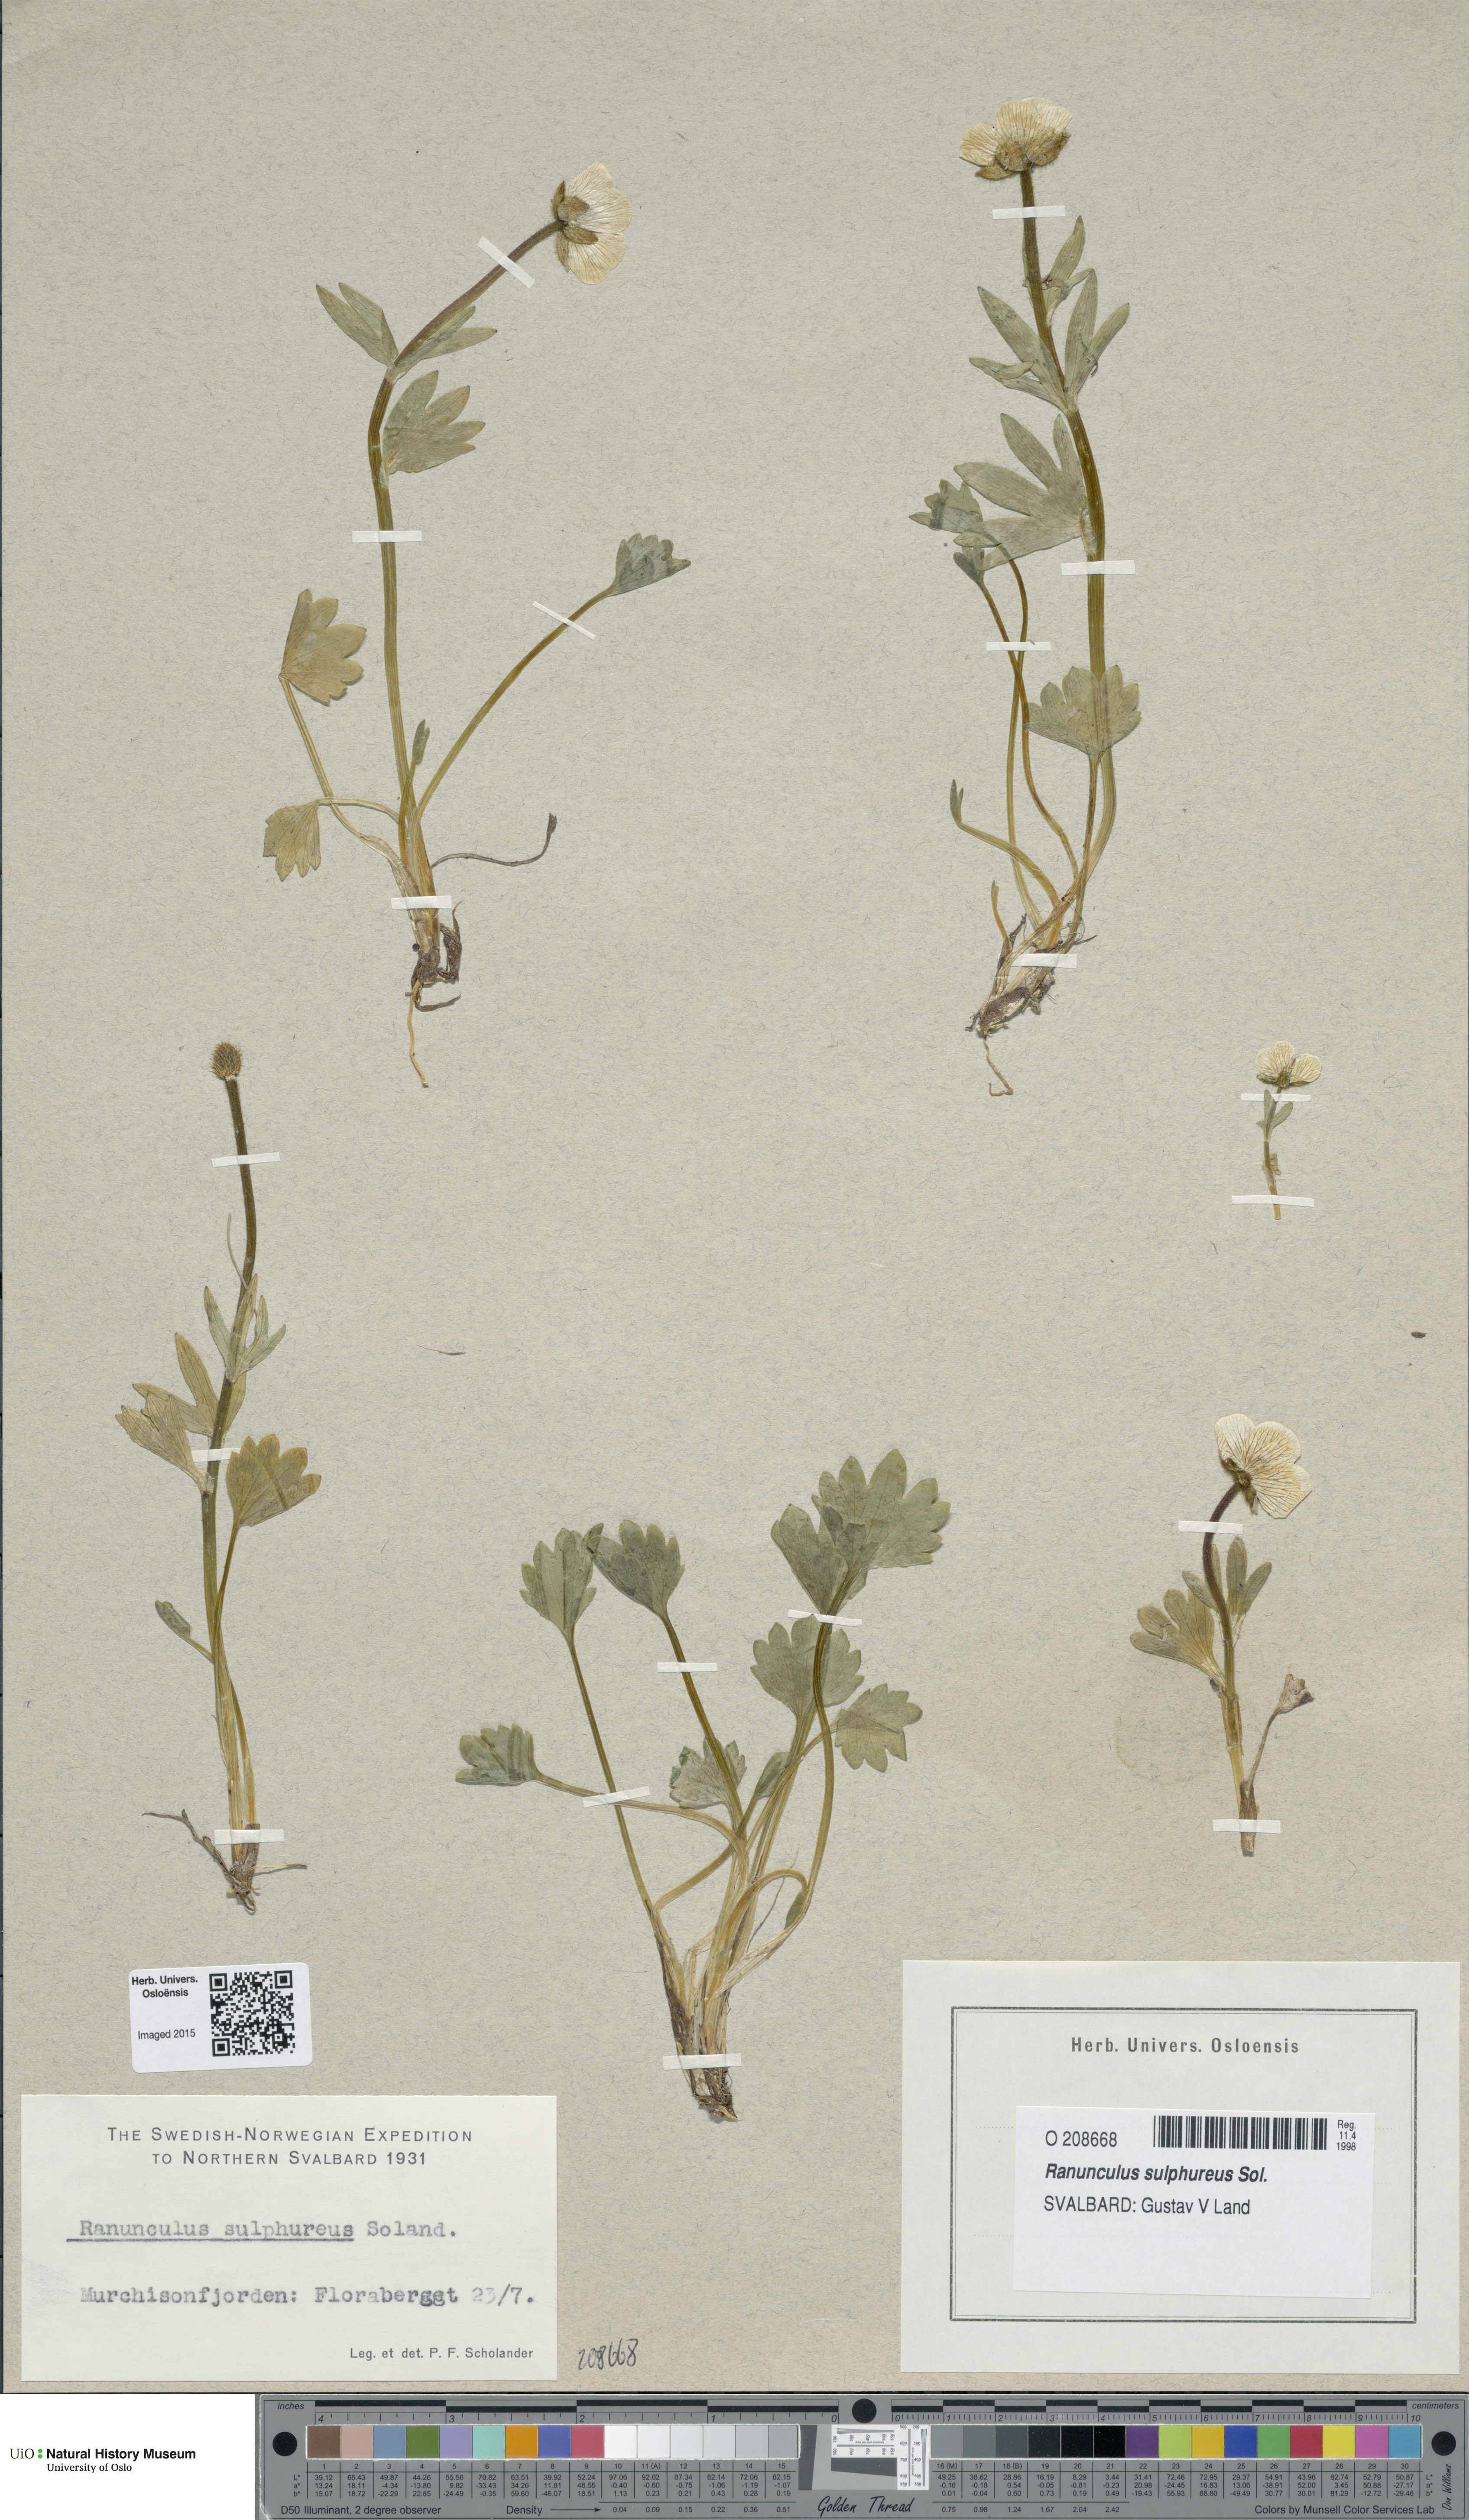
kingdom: Plantae
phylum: Tracheophyta
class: Magnoliopsida
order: Ranunculales
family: Ranunculaceae
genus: Ranunculus
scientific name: Ranunculus sulphureus
